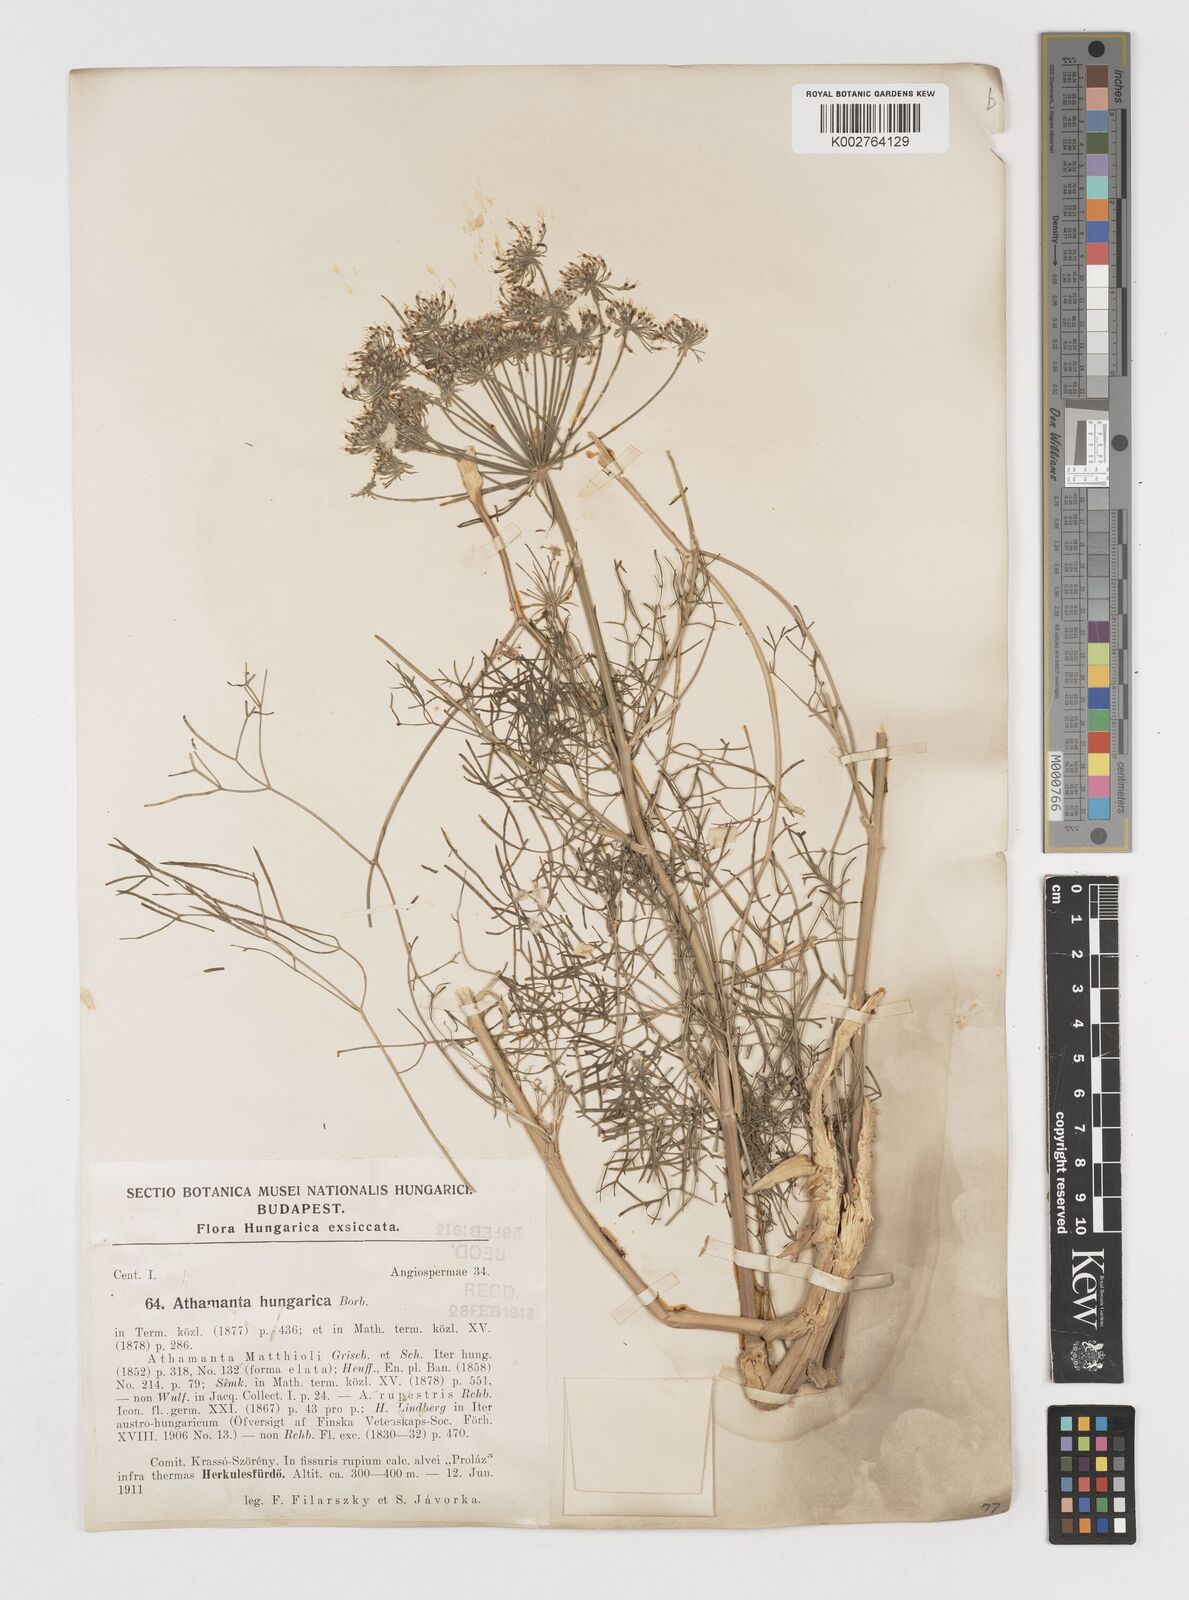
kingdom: Plantae
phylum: Tracheophyta
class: Magnoliopsida
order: Apiales
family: Apiaceae
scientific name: Apiaceae
